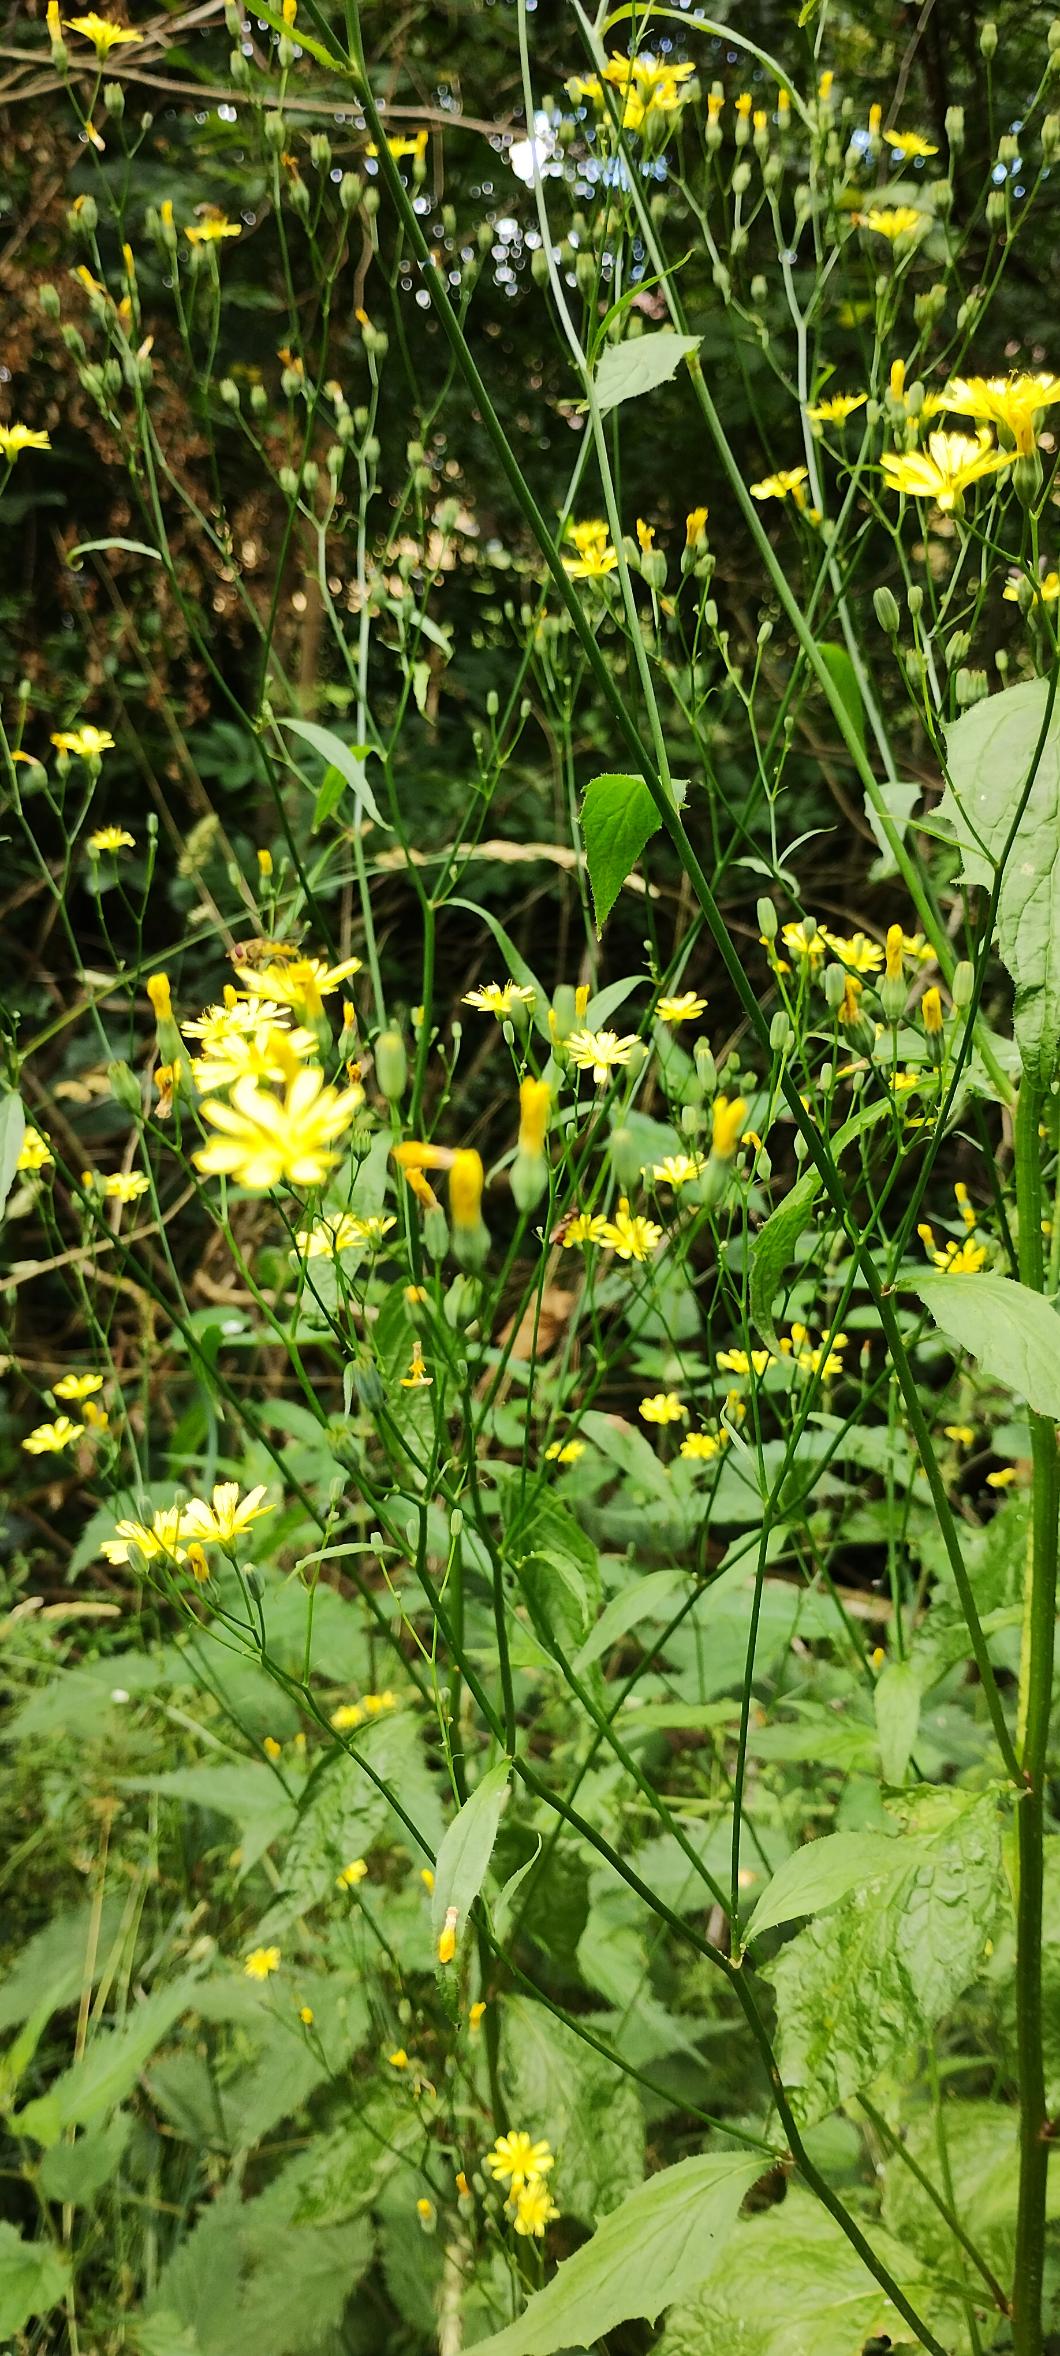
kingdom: Plantae
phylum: Tracheophyta
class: Magnoliopsida
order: Asterales
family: Asteraceae
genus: Lapsana
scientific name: Lapsana communis
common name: Haremad
